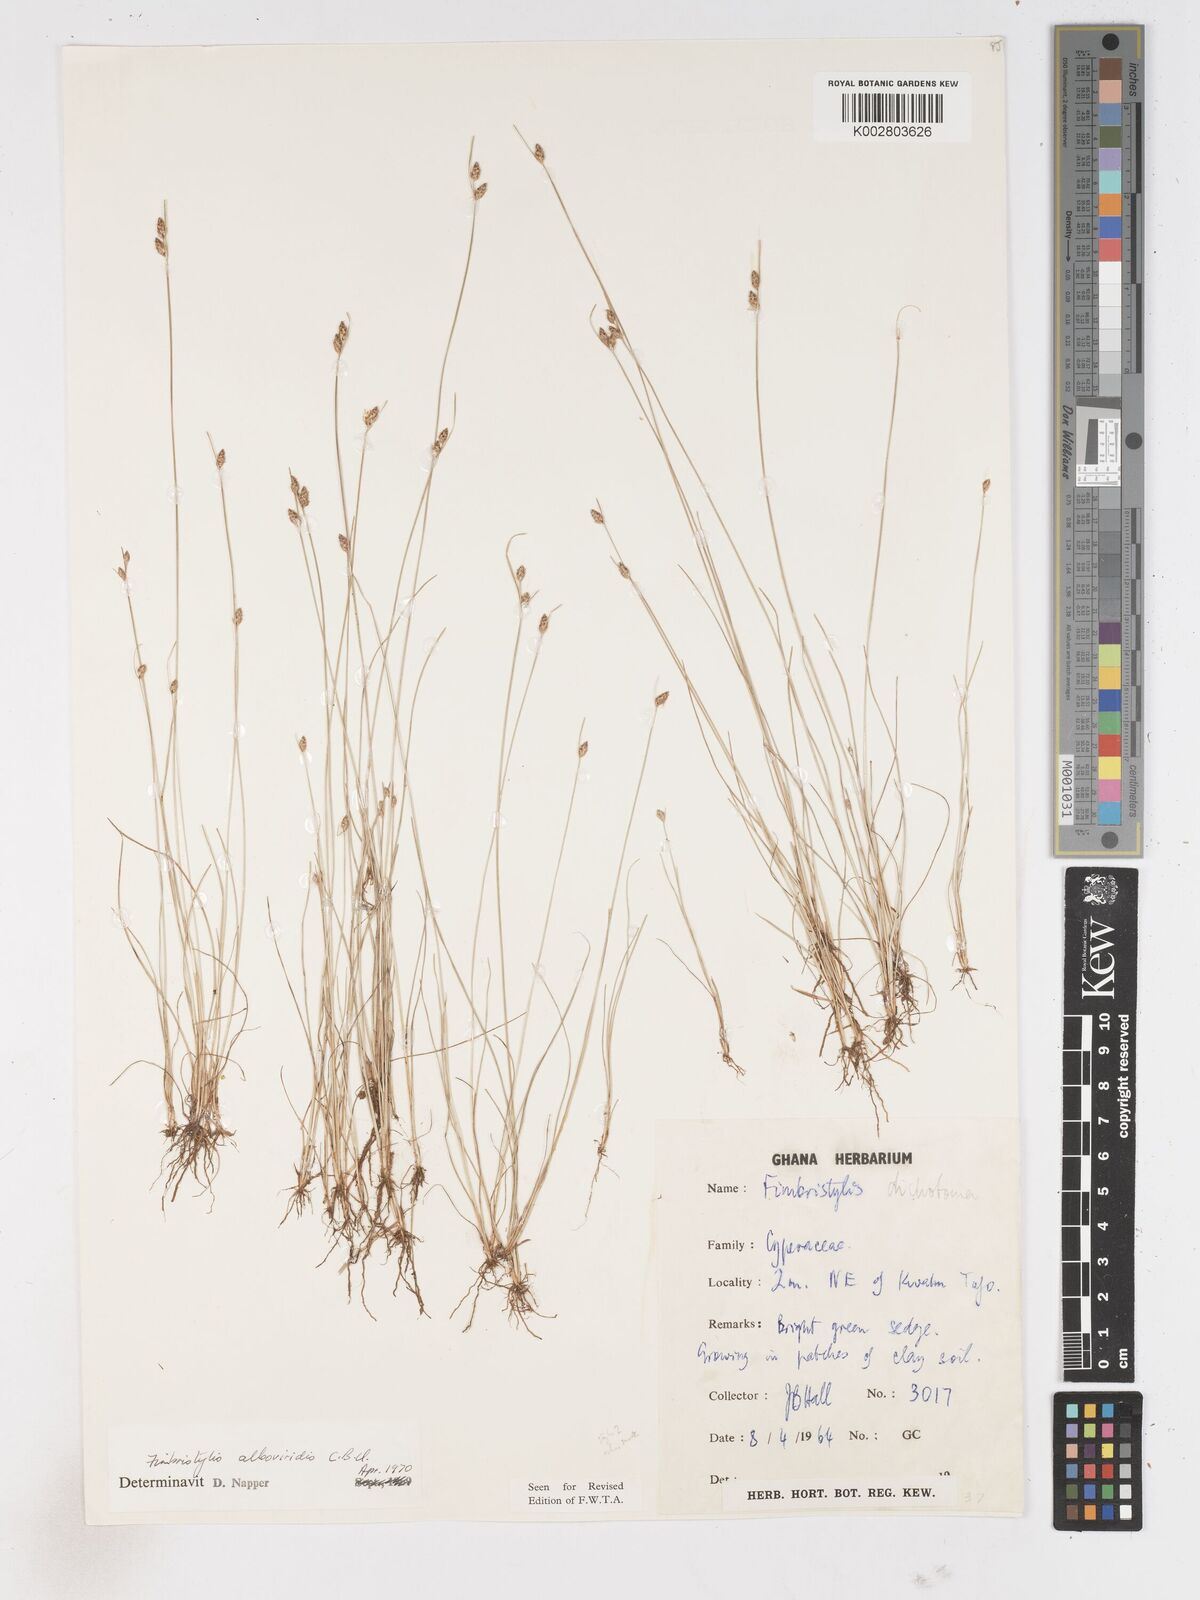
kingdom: Plantae
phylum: Tracheophyta
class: Liliopsida
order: Poales
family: Cyperaceae
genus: Fimbristylis
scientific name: Fimbristylis alboviridis
